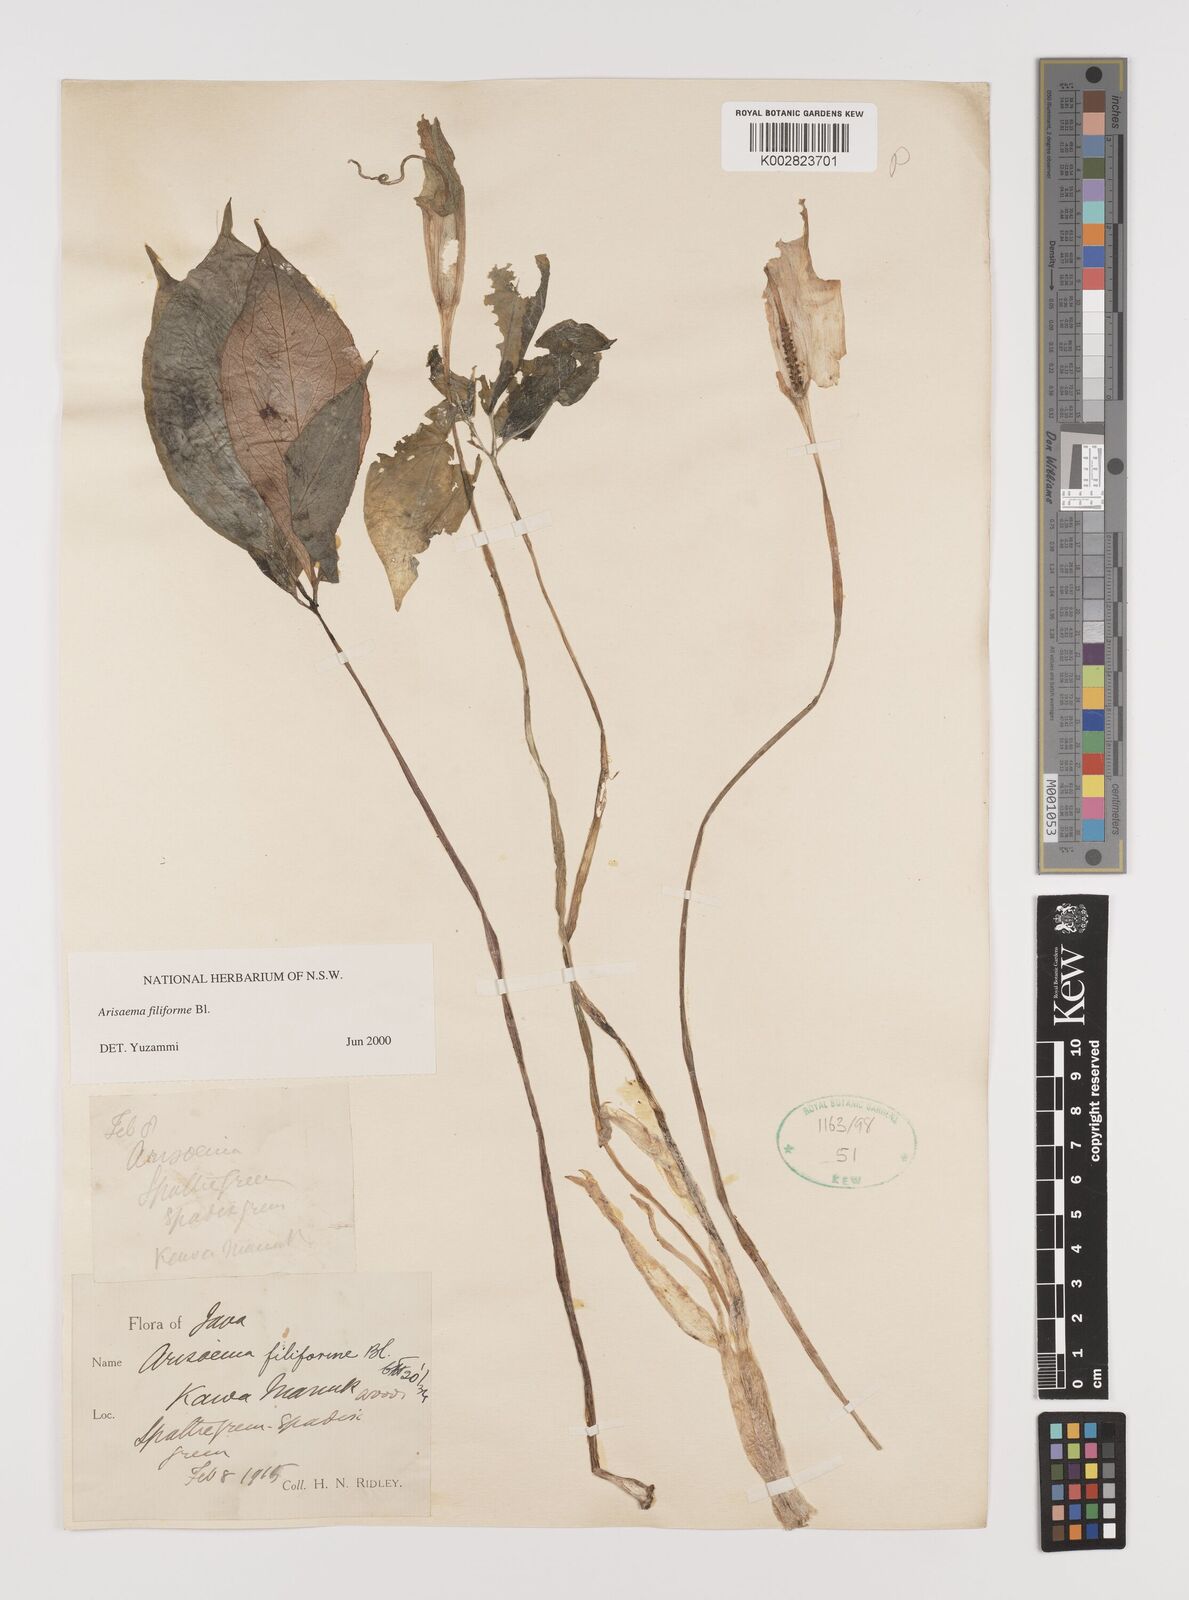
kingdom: Plantae
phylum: Tracheophyta
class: Liliopsida
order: Alismatales
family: Araceae
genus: Arisaema
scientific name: Arisaema filiforme
